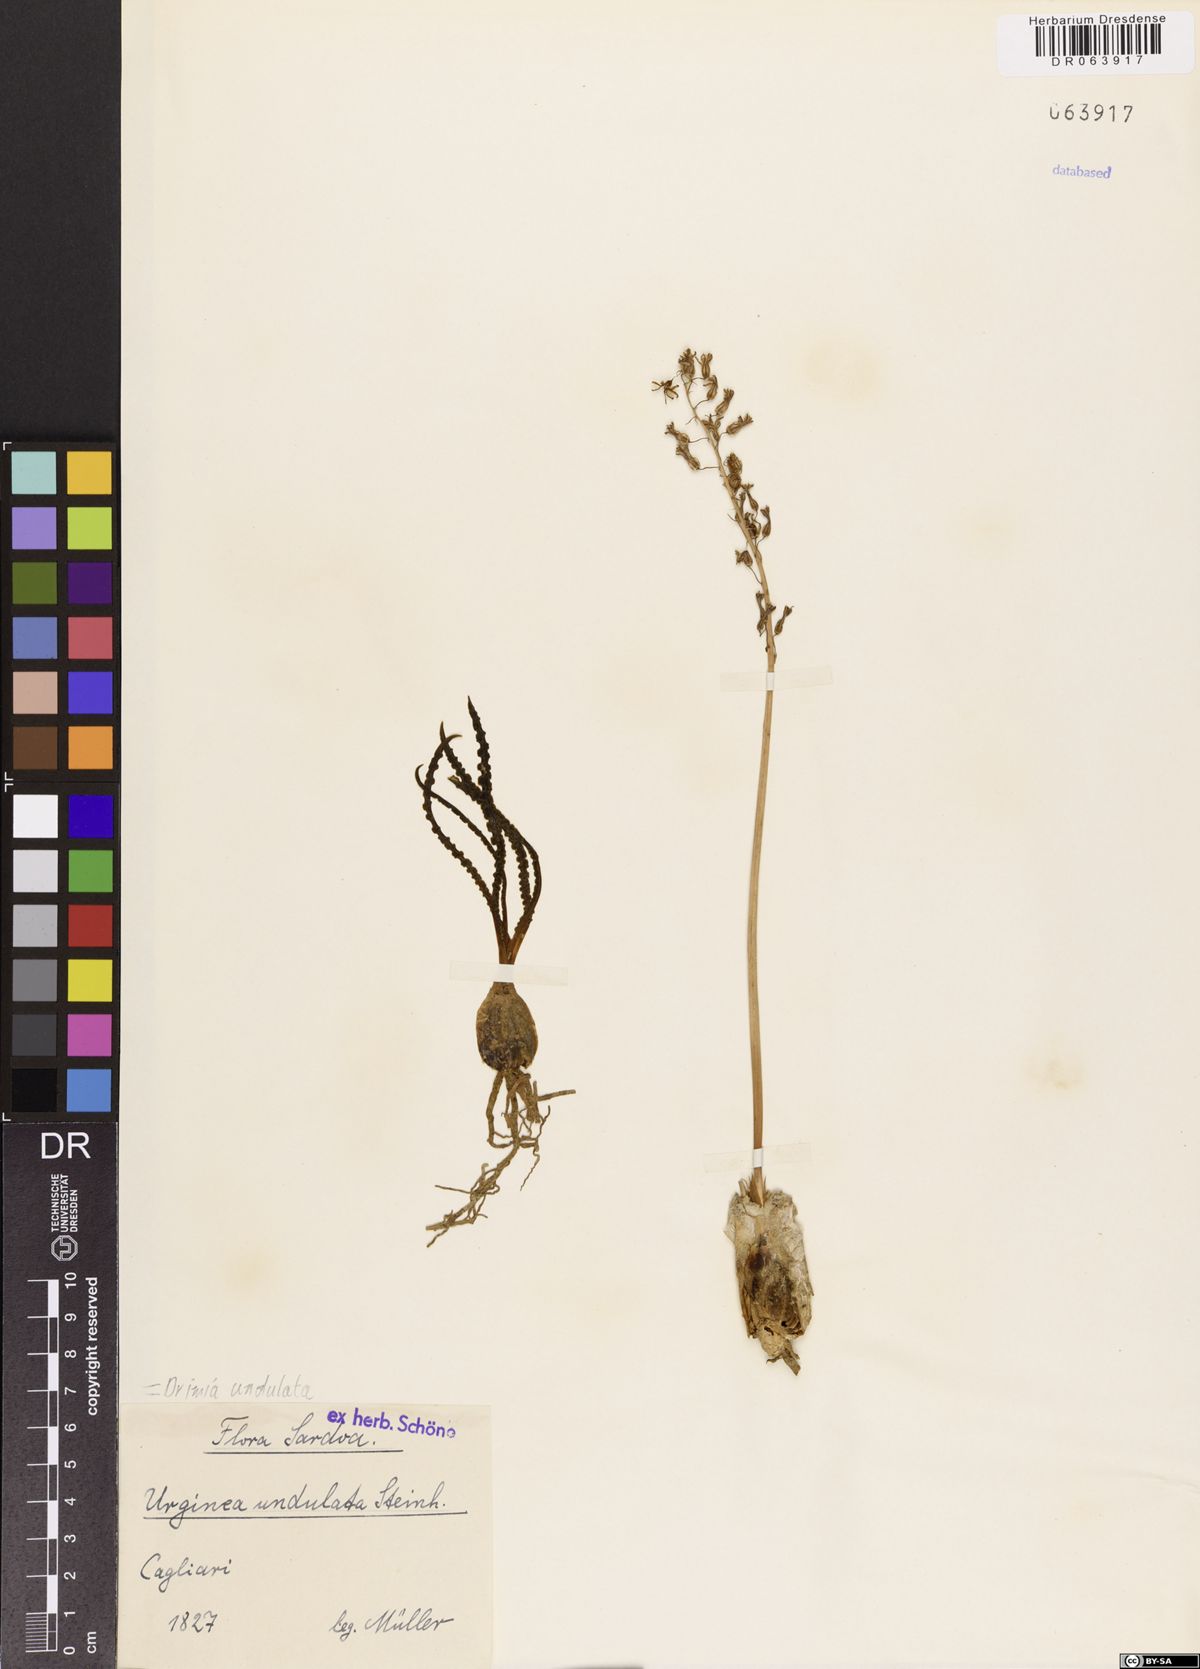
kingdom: Plantae
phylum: Tracheophyta
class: Liliopsida
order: Asparagales
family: Asparagaceae
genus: Ledebouria
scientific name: Ledebouria undulata
